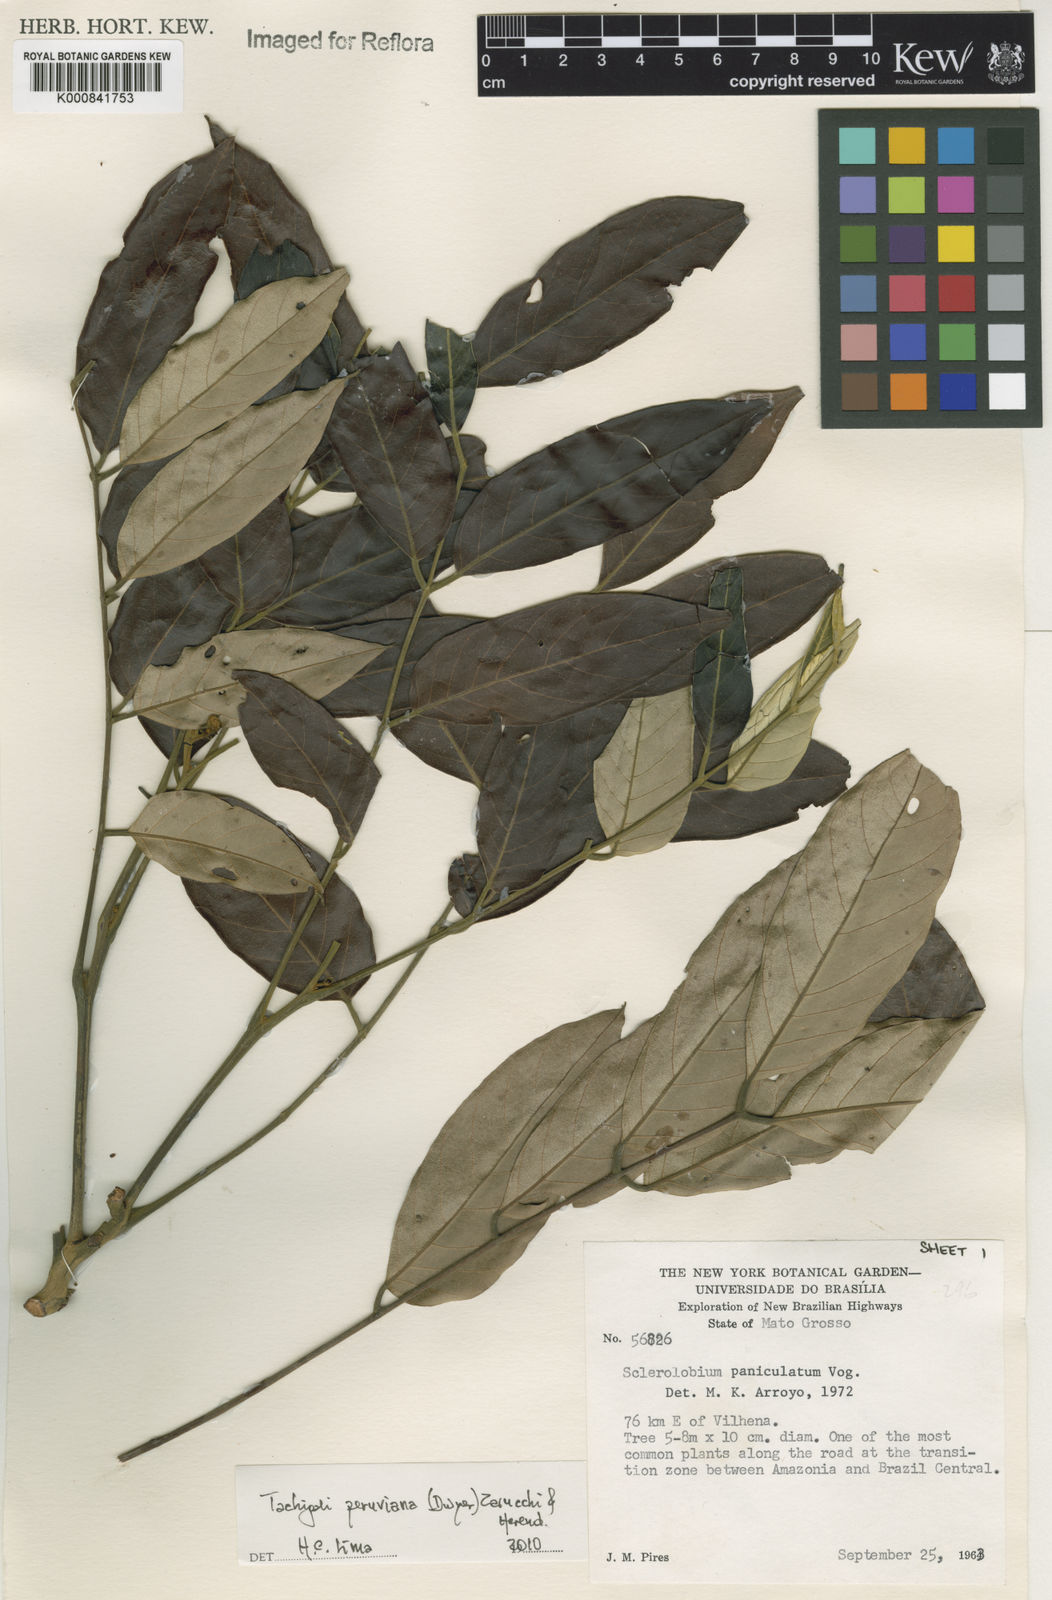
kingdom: Plantae
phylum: Tracheophyta
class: Magnoliopsida
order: Fabales
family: Fabaceae
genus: Tachigali
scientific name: Tachigali peruviana
